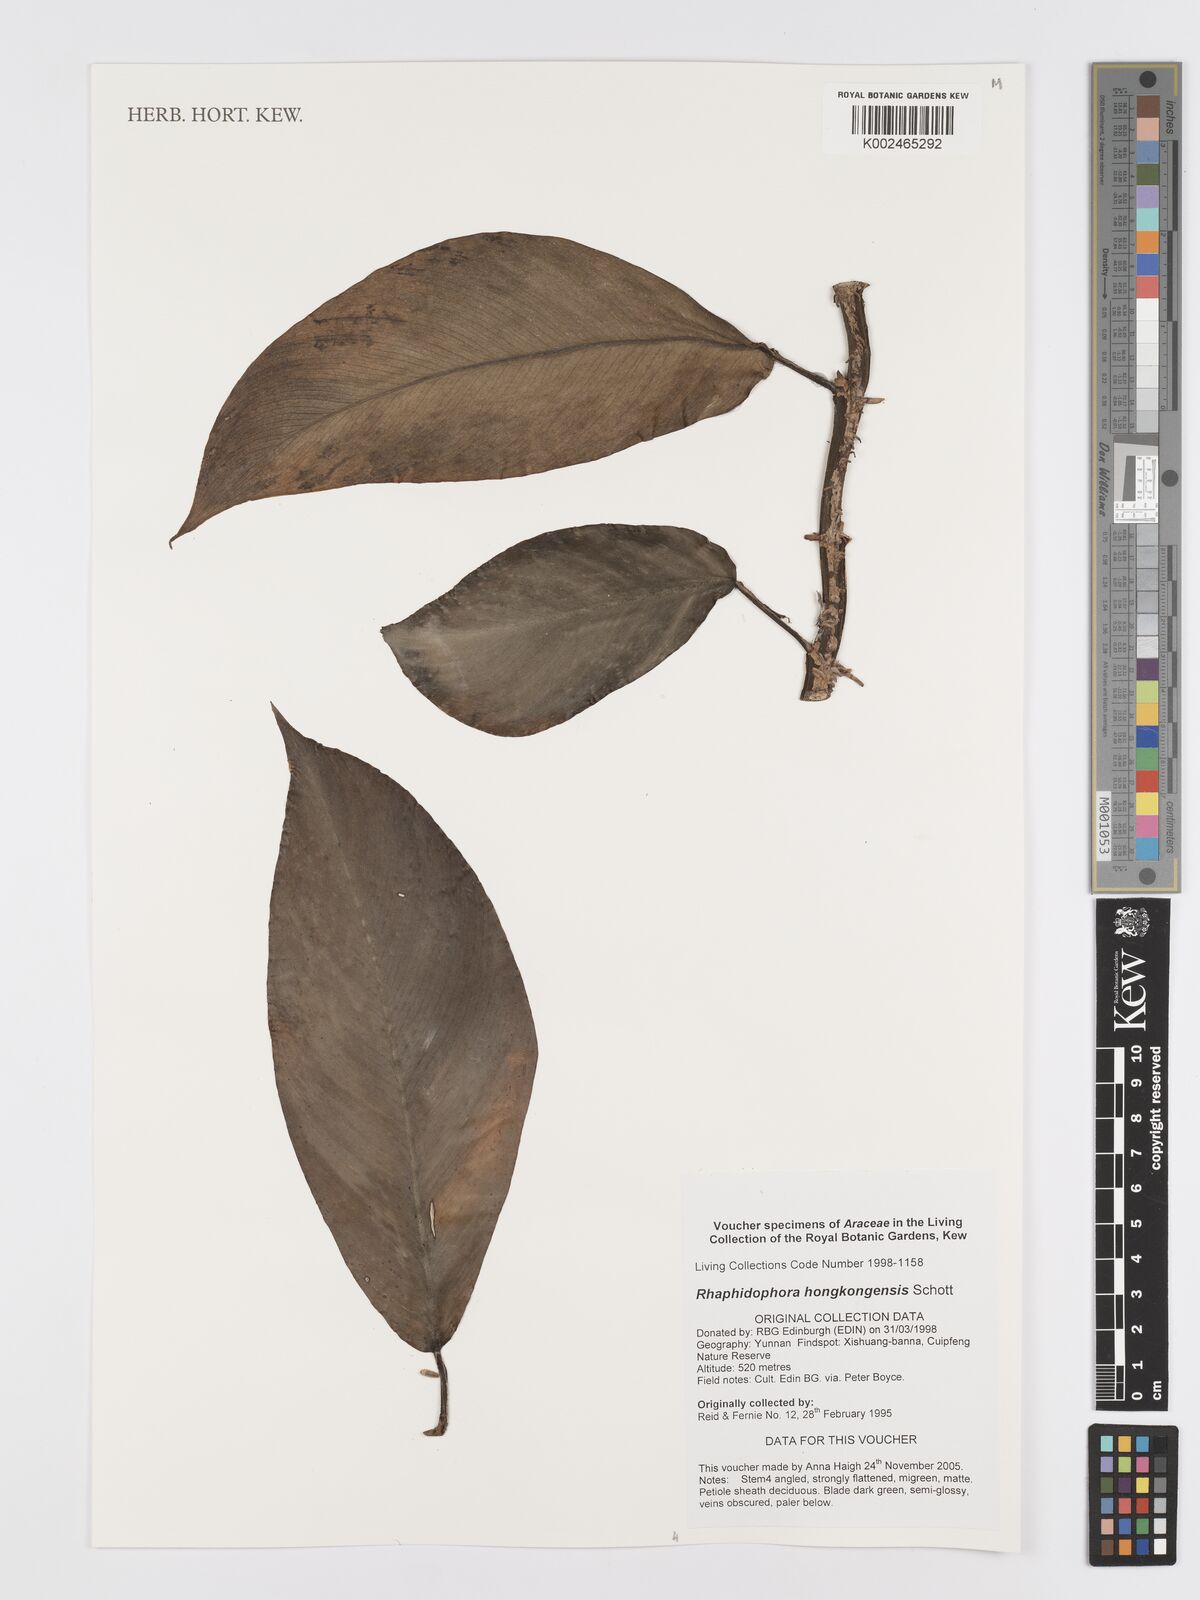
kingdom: Plantae
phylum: Tracheophyta
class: Liliopsida
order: Alismatales
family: Araceae
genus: Rhaphidophora
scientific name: Rhaphidophora hongkongensis
